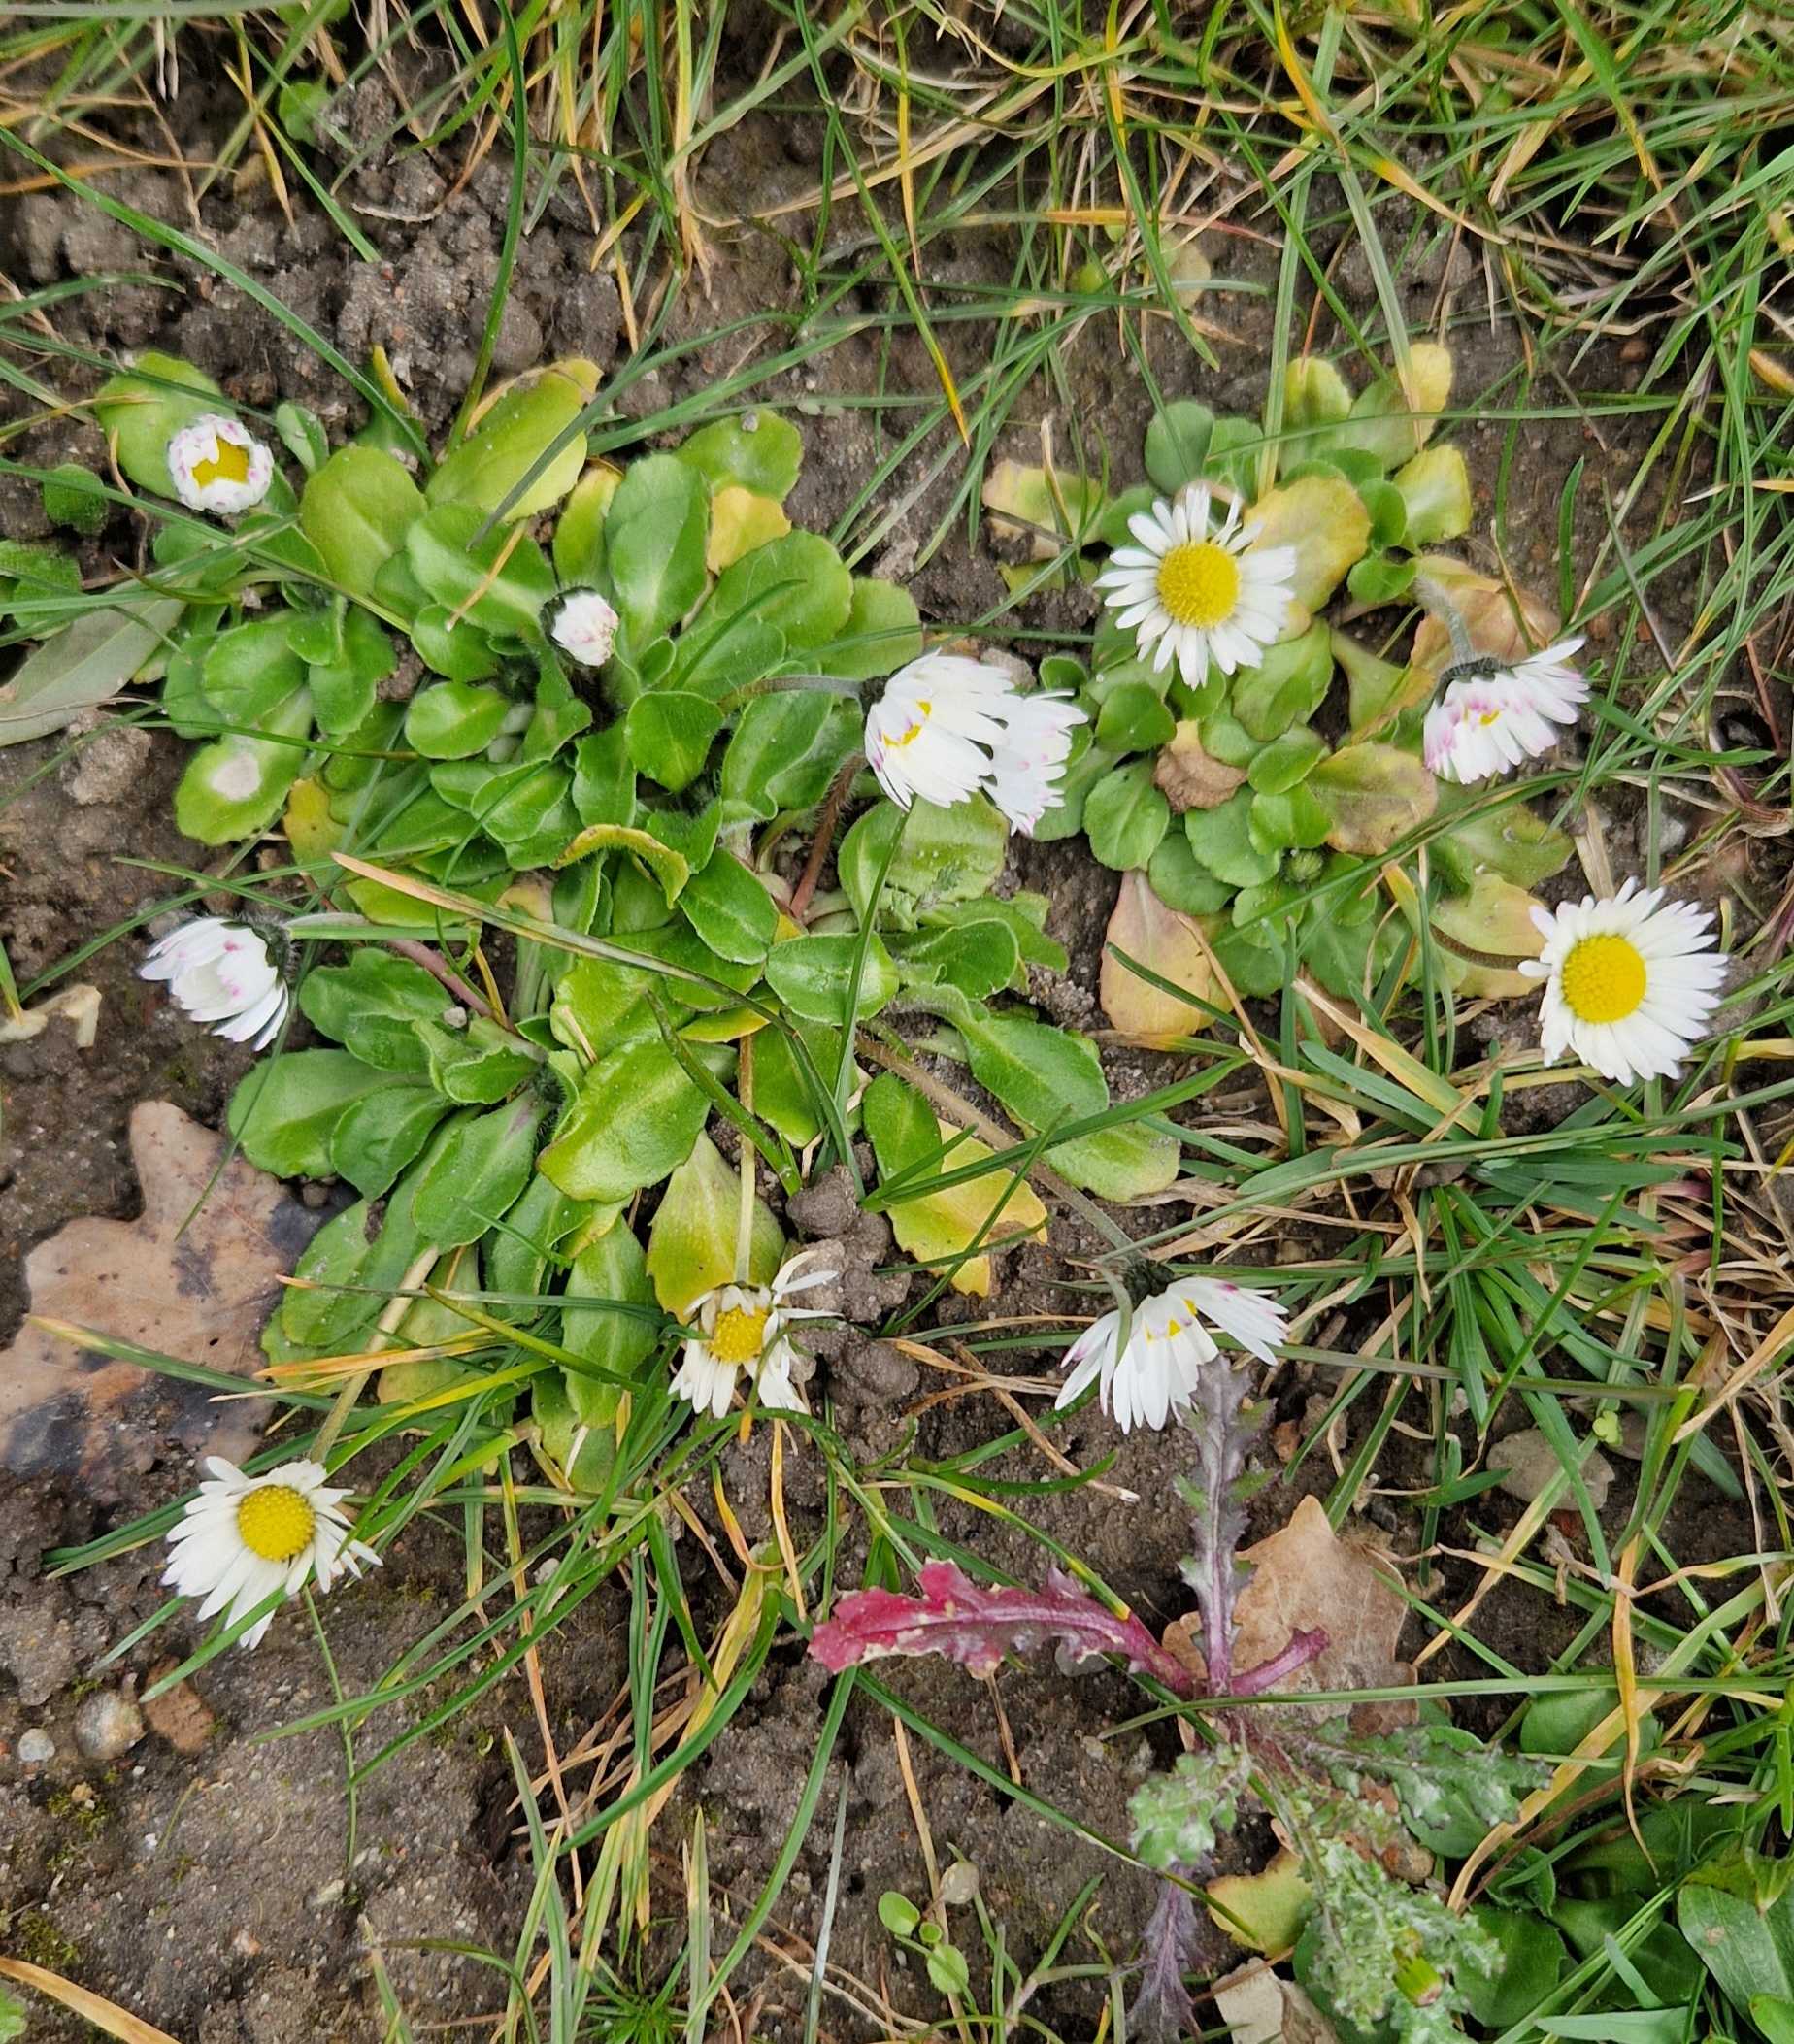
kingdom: Plantae
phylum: Tracheophyta
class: Magnoliopsida
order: Asterales
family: Asteraceae
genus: Bellis
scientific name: Bellis perennis
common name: Tusindfryd
